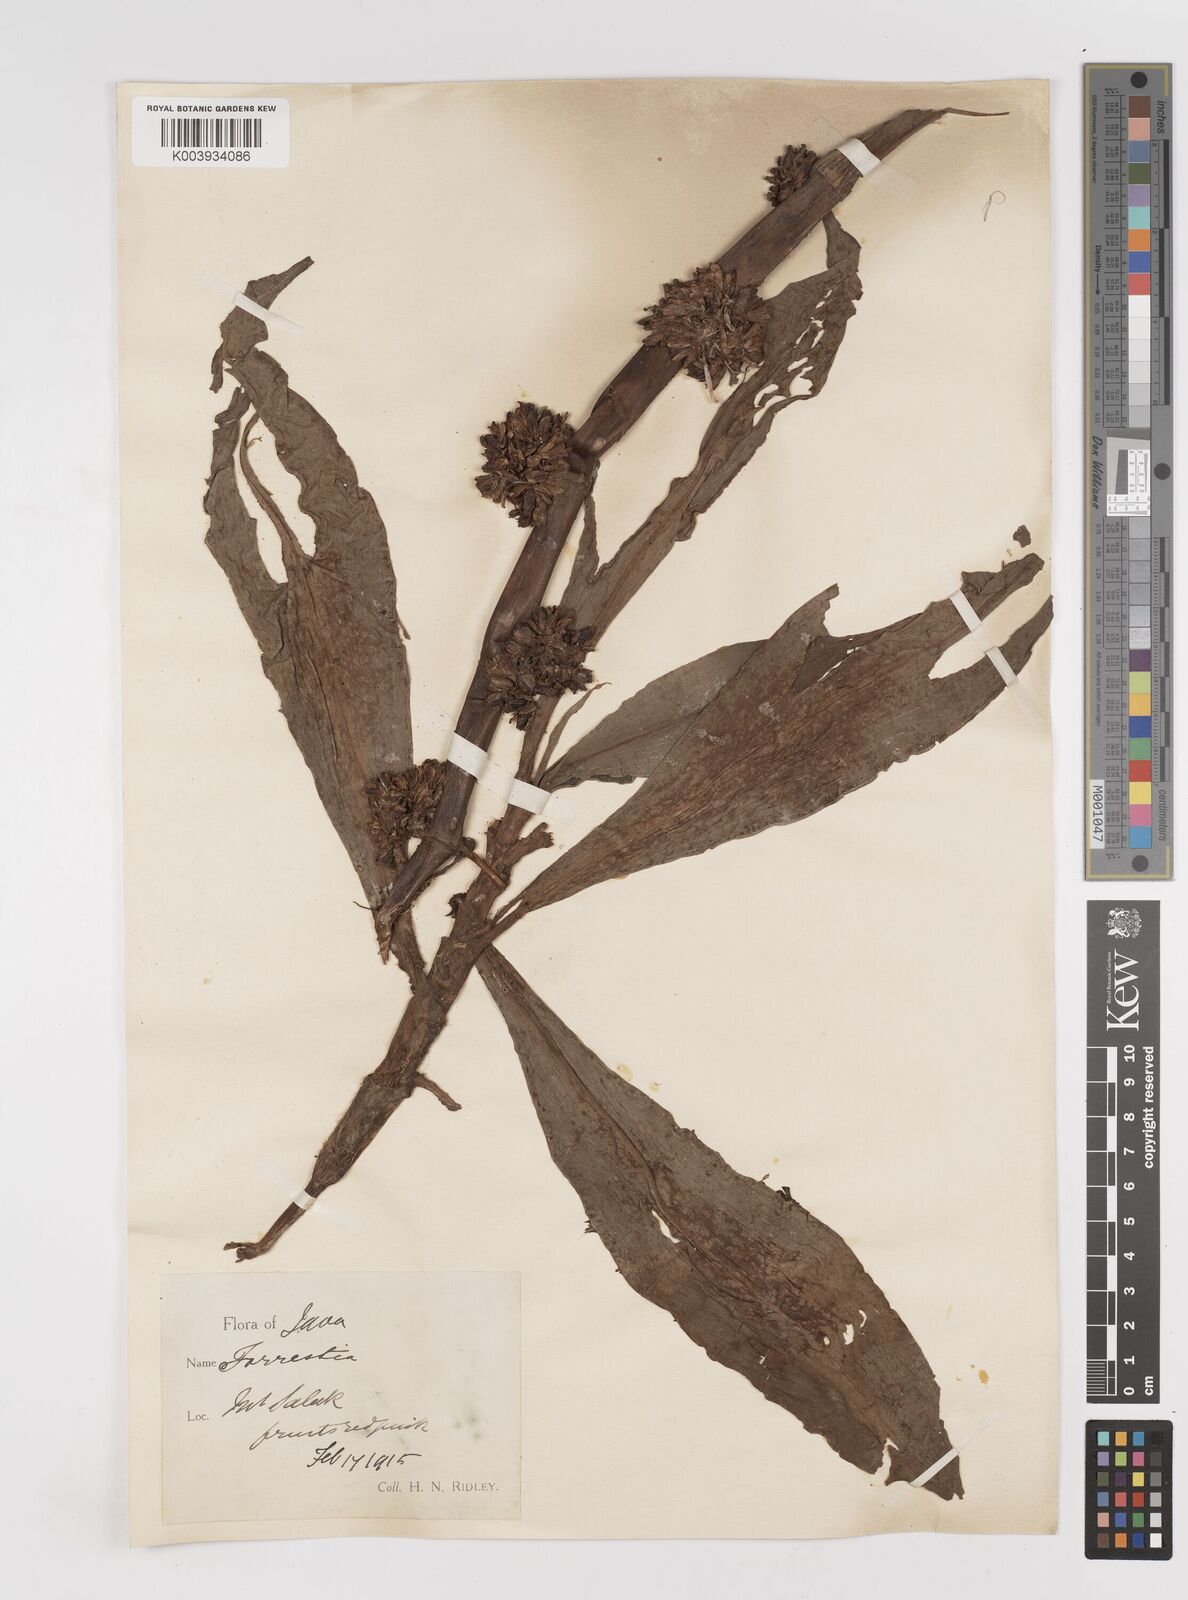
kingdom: Plantae
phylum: Tracheophyta
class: Liliopsida
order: Commelinales
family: Commelinaceae
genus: Amischotolype
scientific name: Amischotolype
